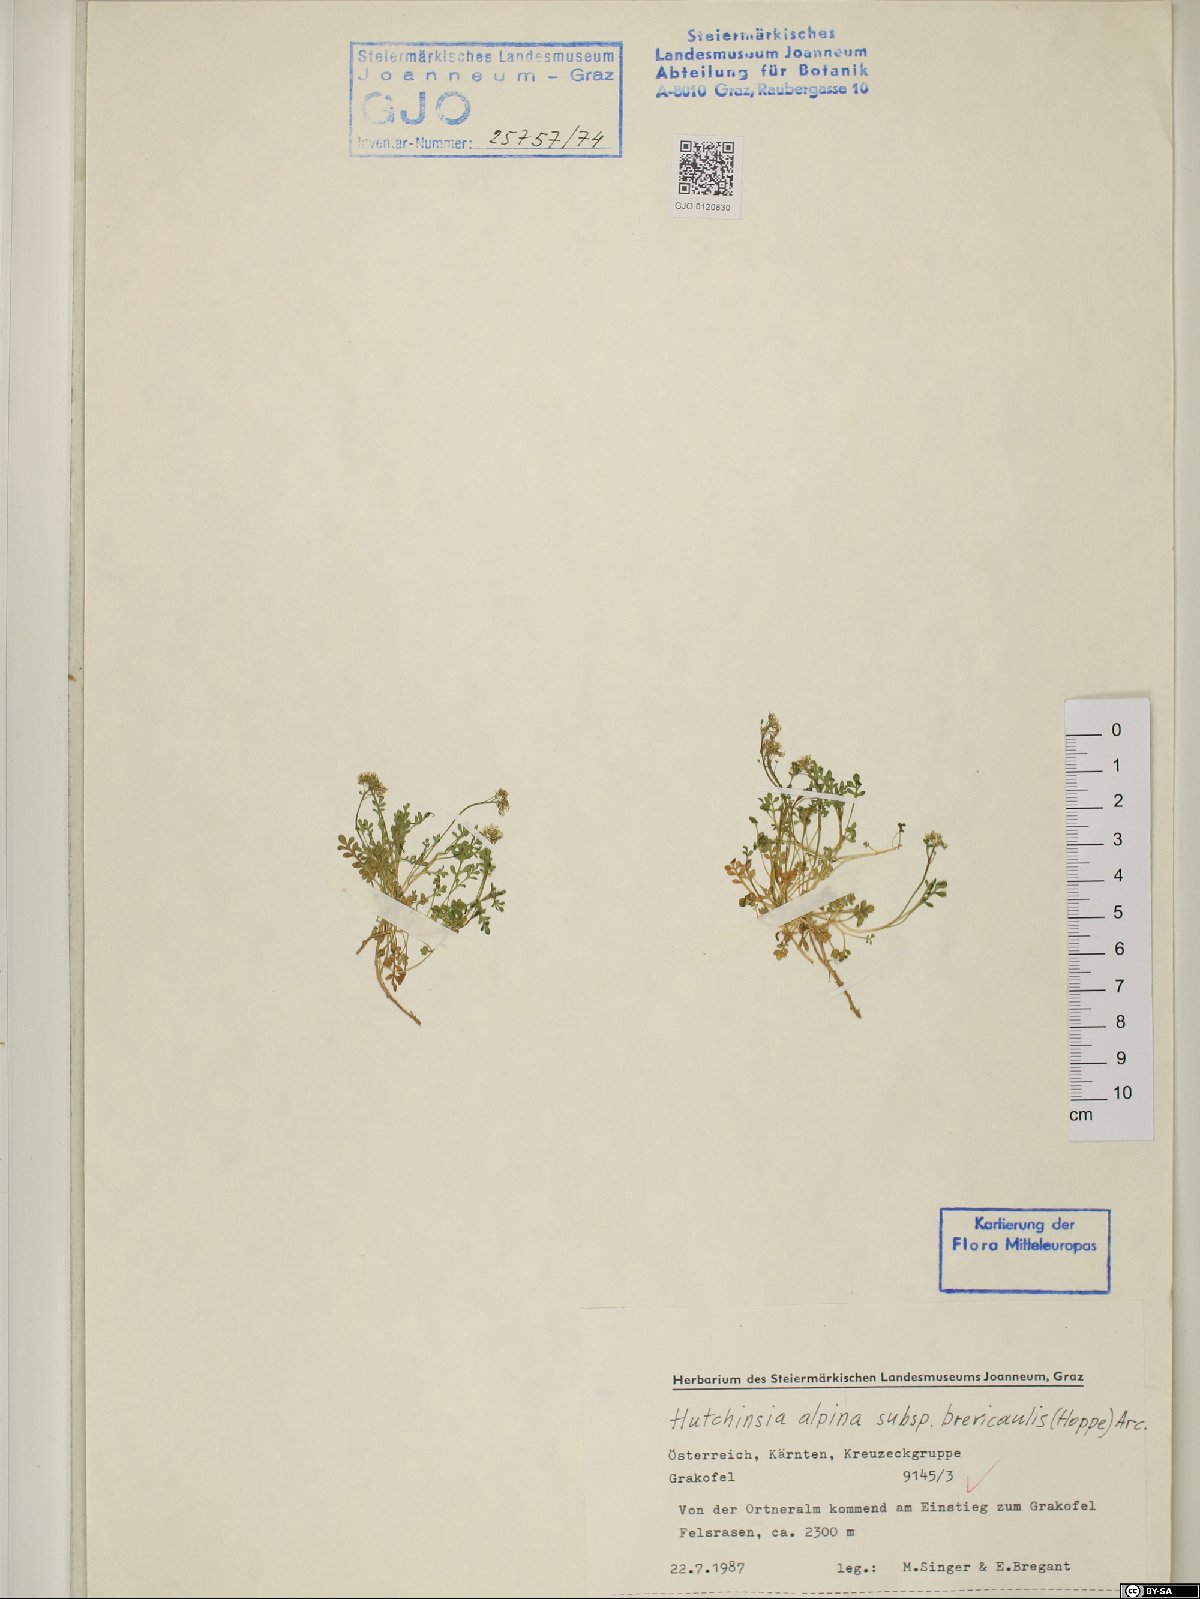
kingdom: Plantae
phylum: Tracheophyta
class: Magnoliopsida
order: Brassicales
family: Brassicaceae
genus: Hornungia
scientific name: Hornungia alpina
